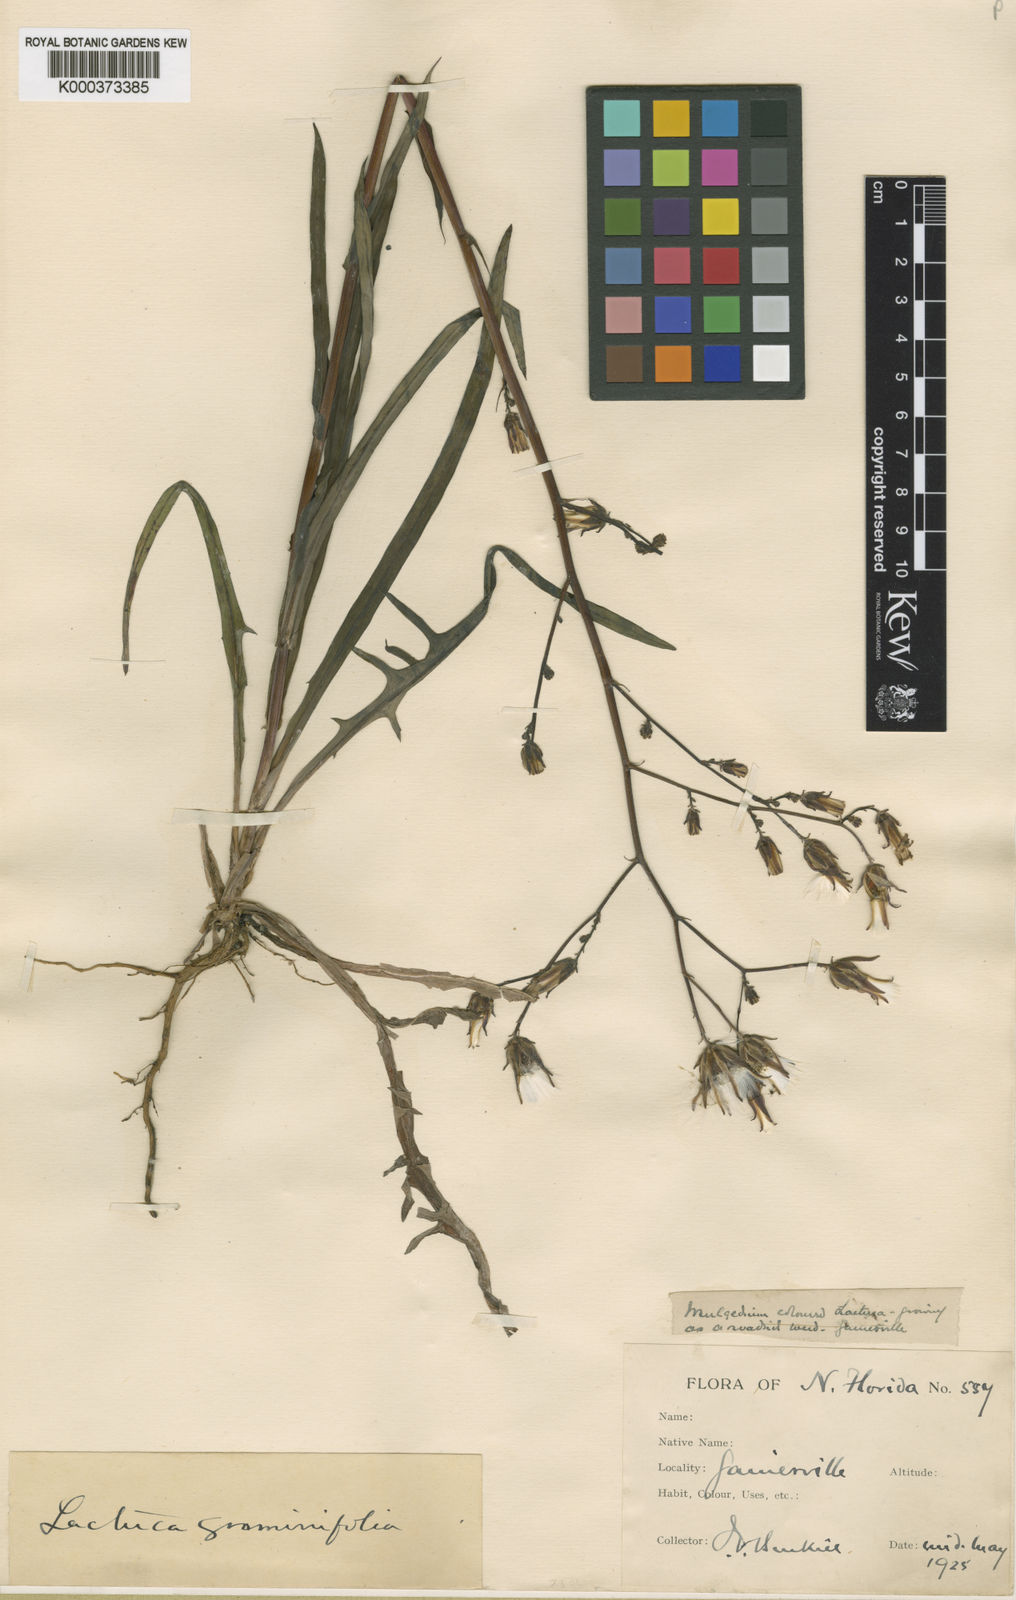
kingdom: Plantae
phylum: Tracheophyta
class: Magnoliopsida
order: Asterales
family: Asteraceae
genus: Lactuca
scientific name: Lactuca graminifolia
